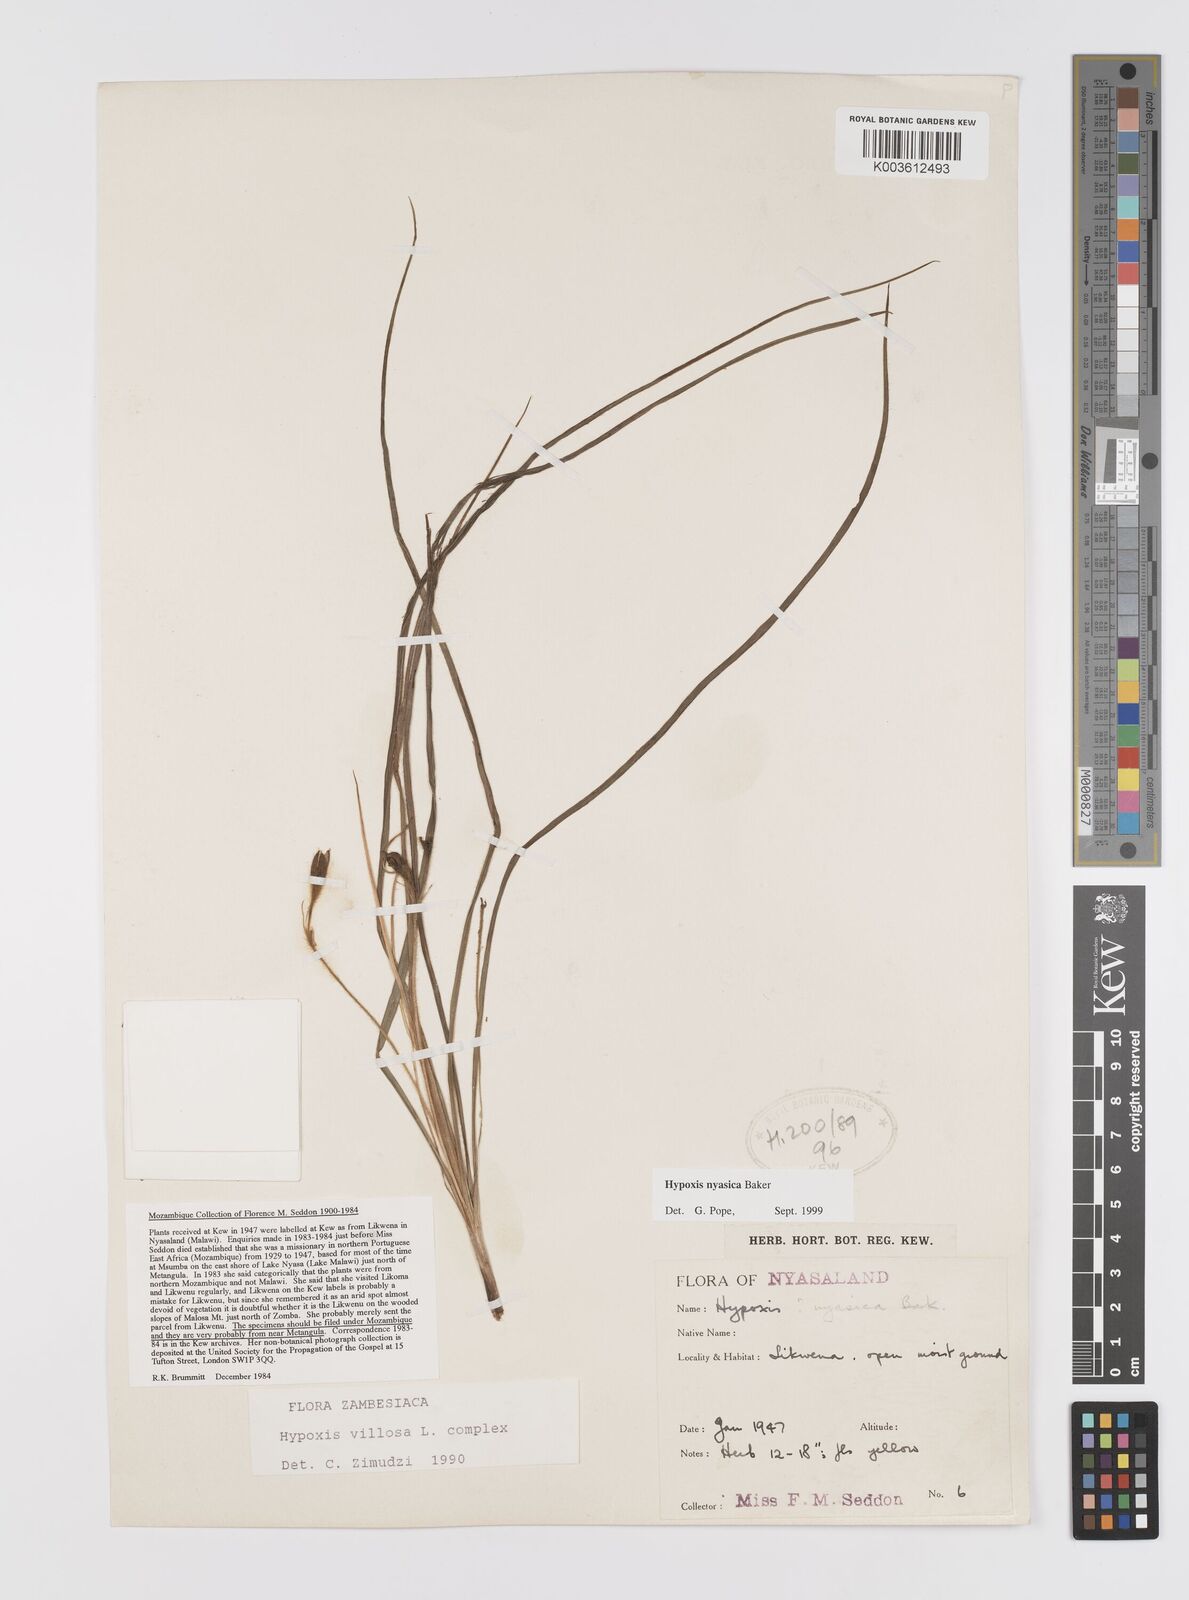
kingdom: Plantae
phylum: Tracheophyta
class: Liliopsida
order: Asparagales
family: Hypoxidaceae
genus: Hypoxis
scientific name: Hypoxis nyasica
